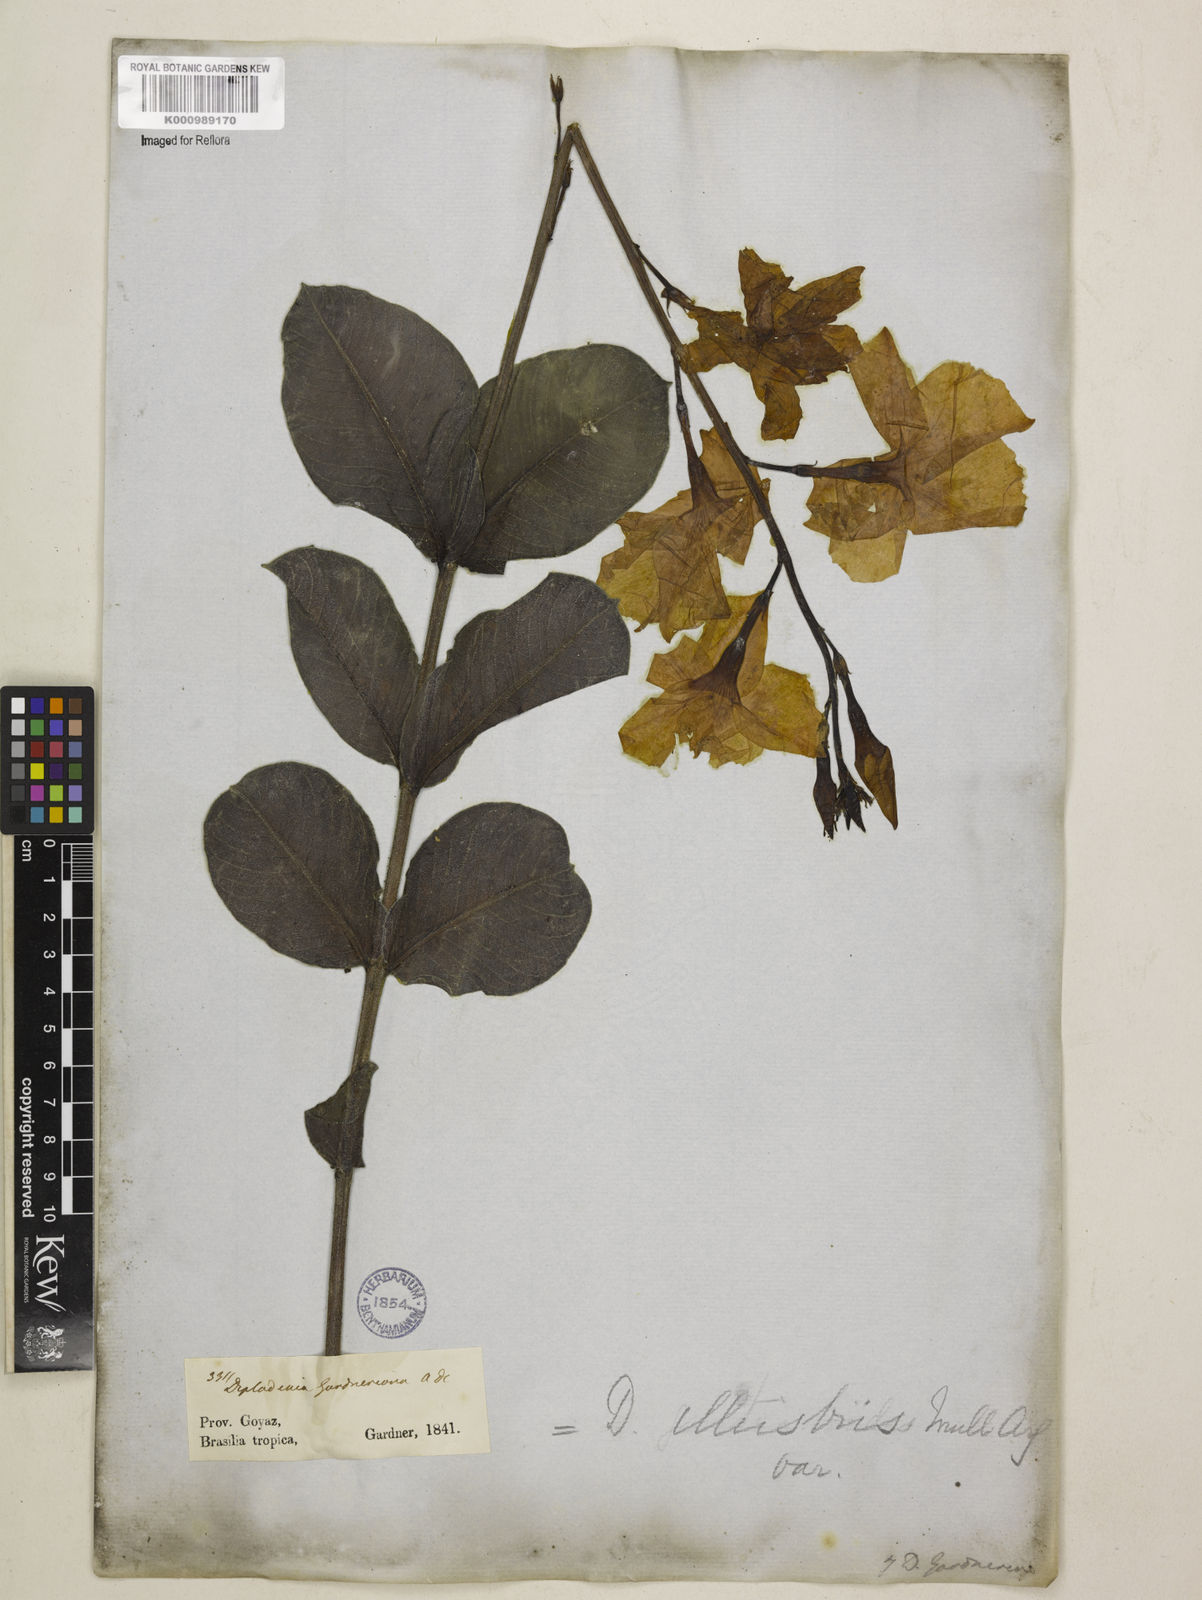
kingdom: Plantae
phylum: Tracheophyta
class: Magnoliopsida
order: Gentianales
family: Apocynaceae
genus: Mandevilla
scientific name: Mandevilla illustris
